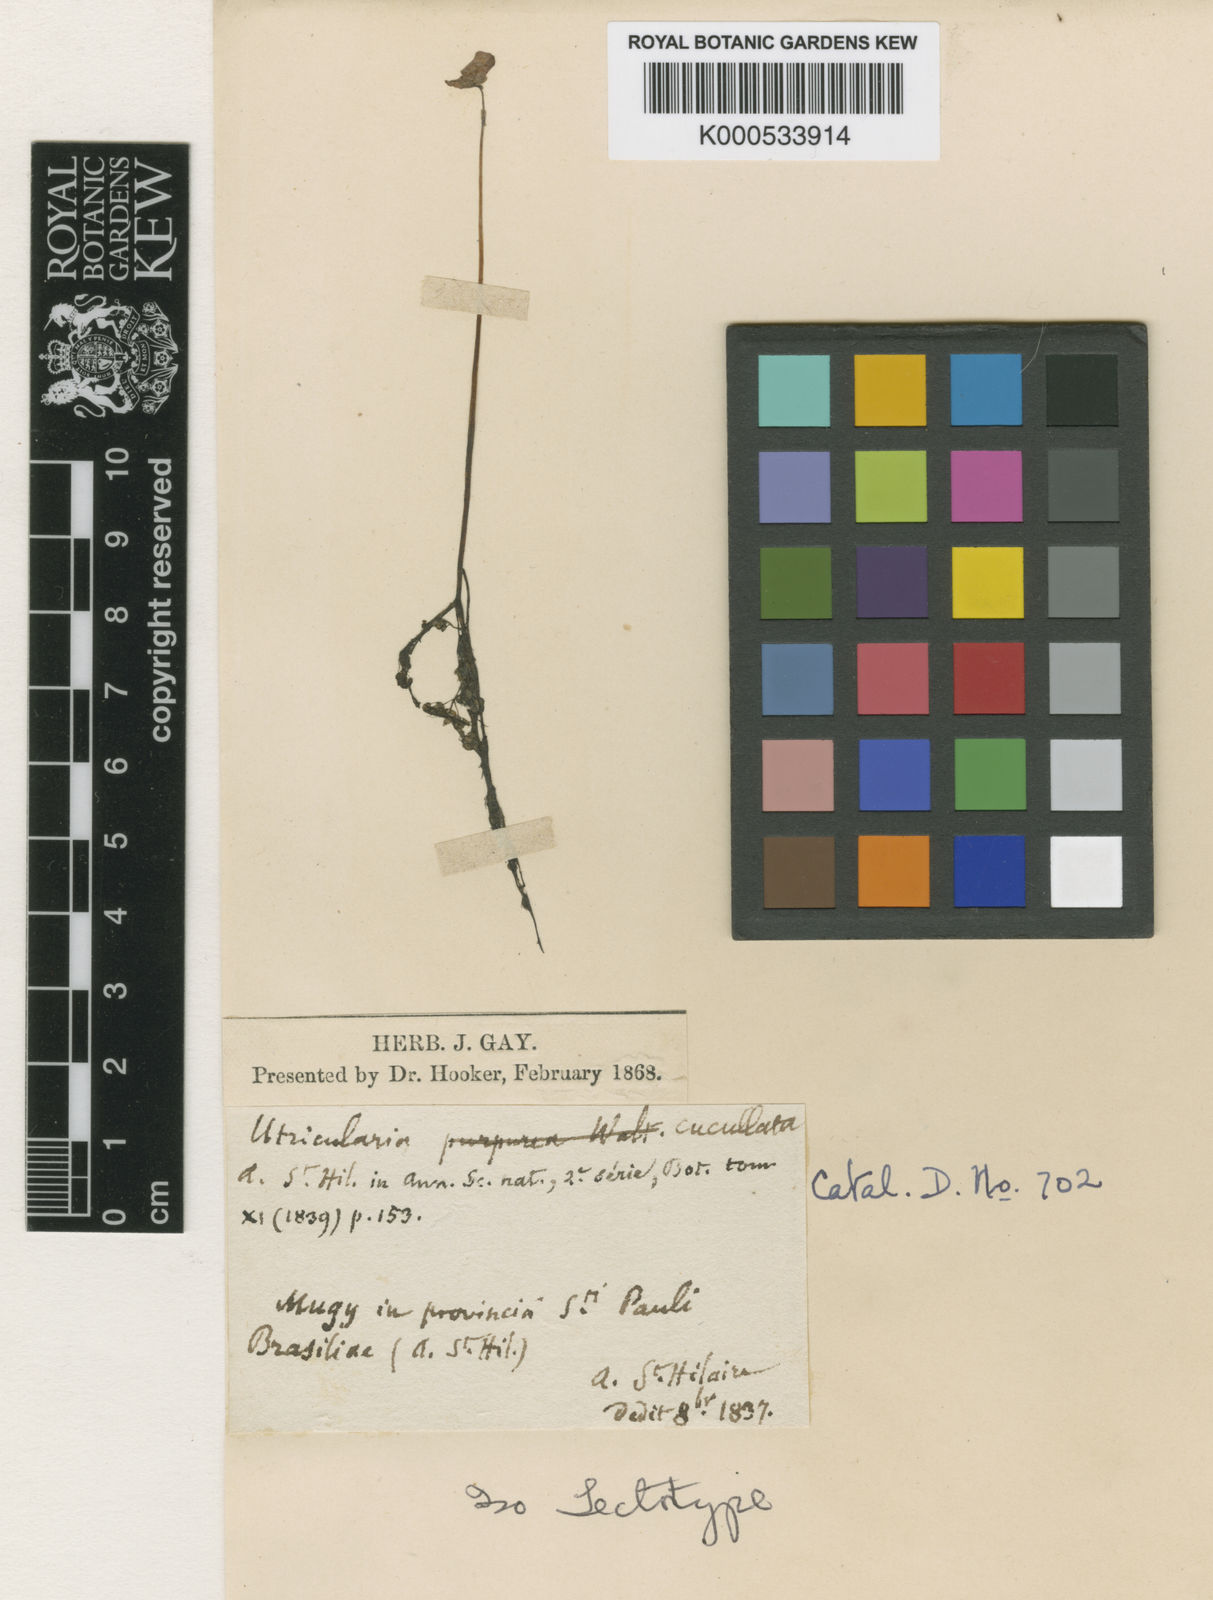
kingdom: Plantae
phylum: Tracheophyta
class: Magnoliopsida
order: Lamiales
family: Lentibulariaceae
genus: Utricularia
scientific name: Utricularia cucullata
